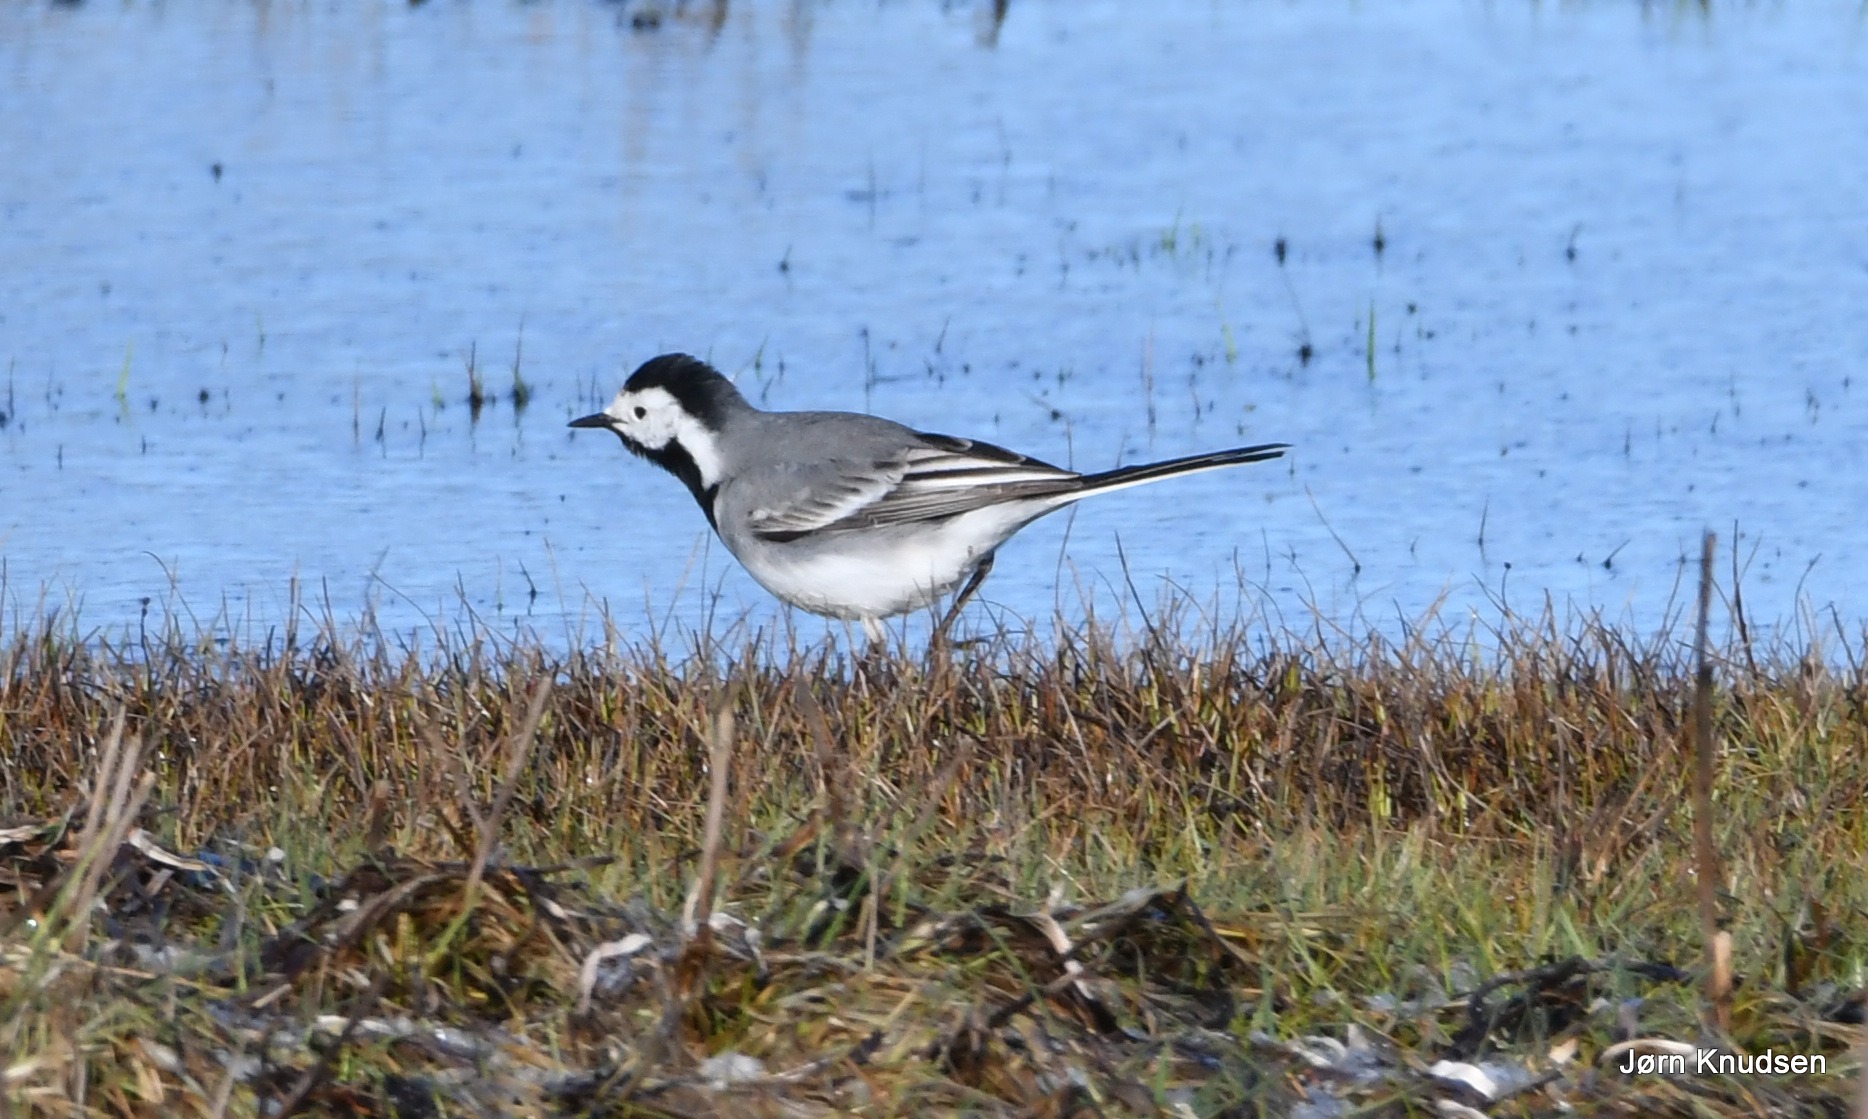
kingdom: Animalia
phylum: Chordata
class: Aves
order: Passeriformes
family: Motacillidae
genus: Motacilla
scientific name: Motacilla alba
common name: Hvid vipstjert
